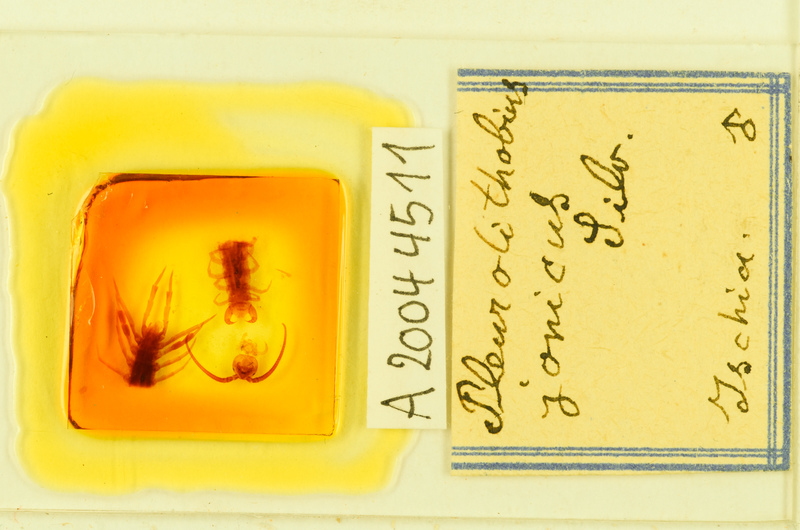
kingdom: Animalia
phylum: Arthropoda
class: Chilopoda
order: Lithobiomorpha
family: Lithobiidae
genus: Pleurolithobius
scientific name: Pleurolithobius
